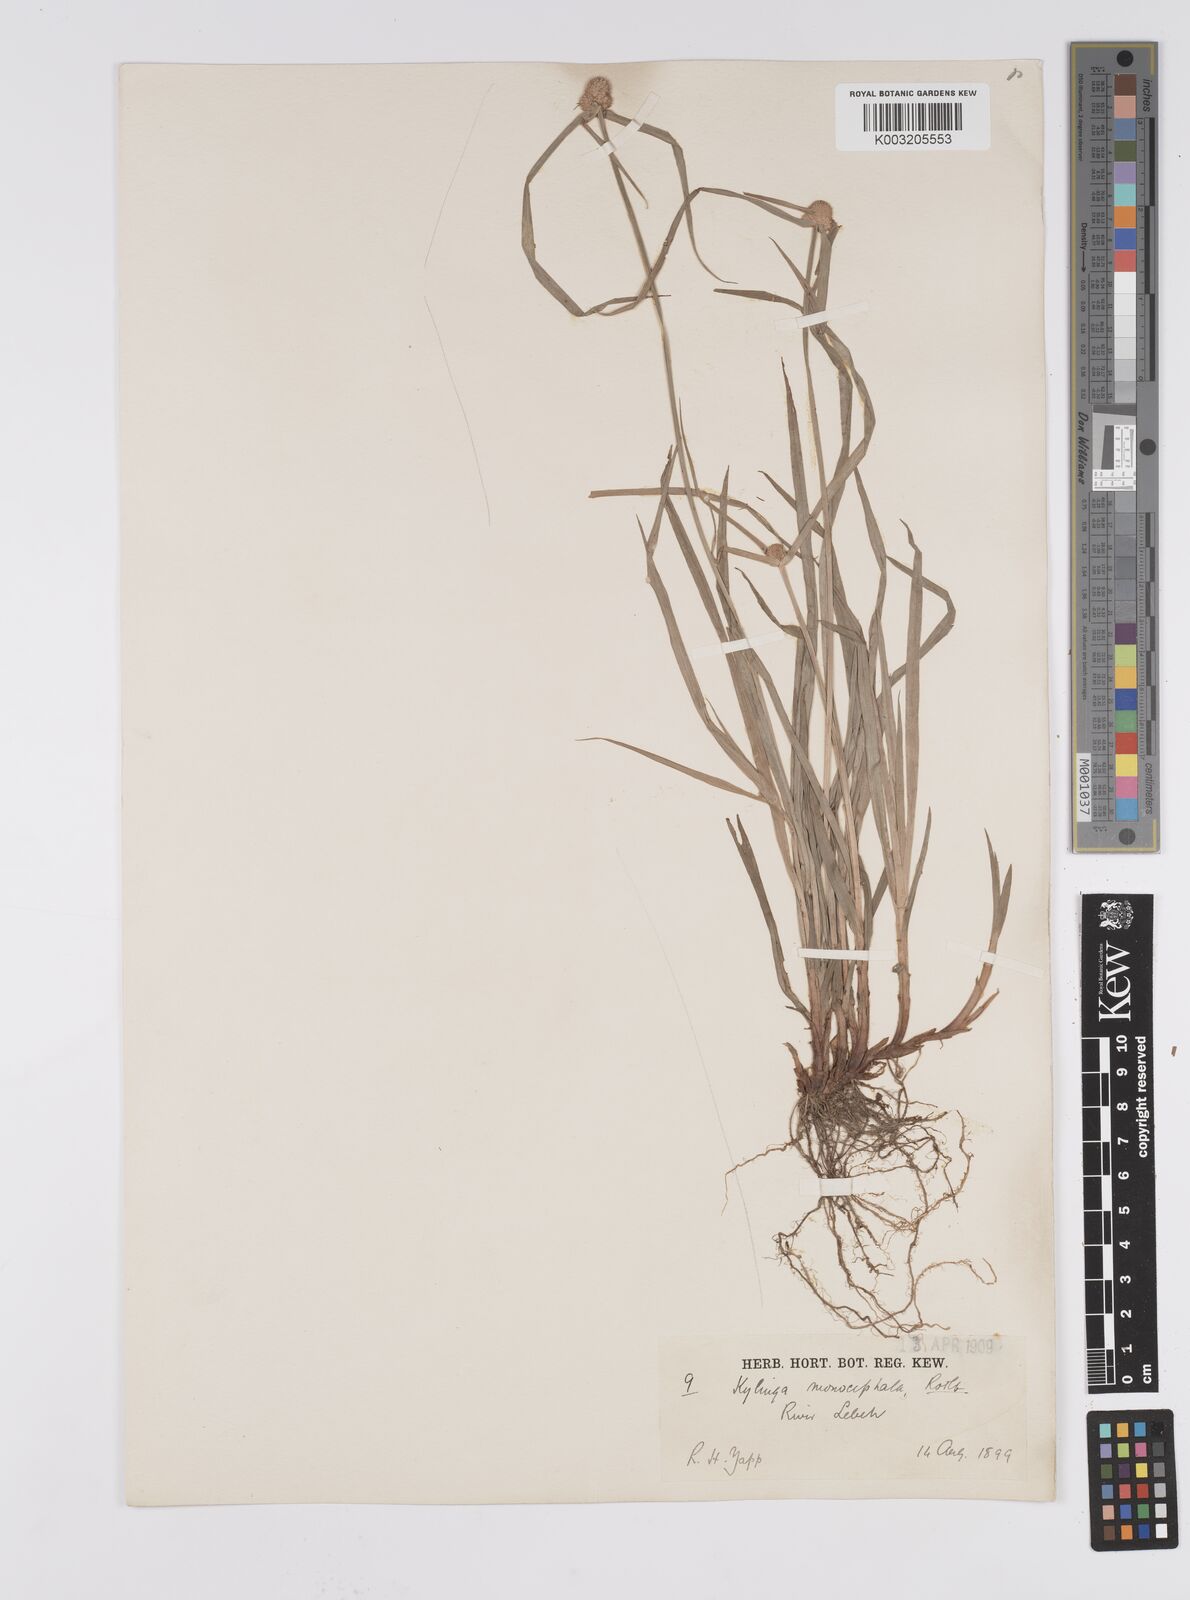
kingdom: Plantae
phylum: Tracheophyta
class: Liliopsida
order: Poales
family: Cyperaceae
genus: Cyperus
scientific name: Cyperus nemoralis
